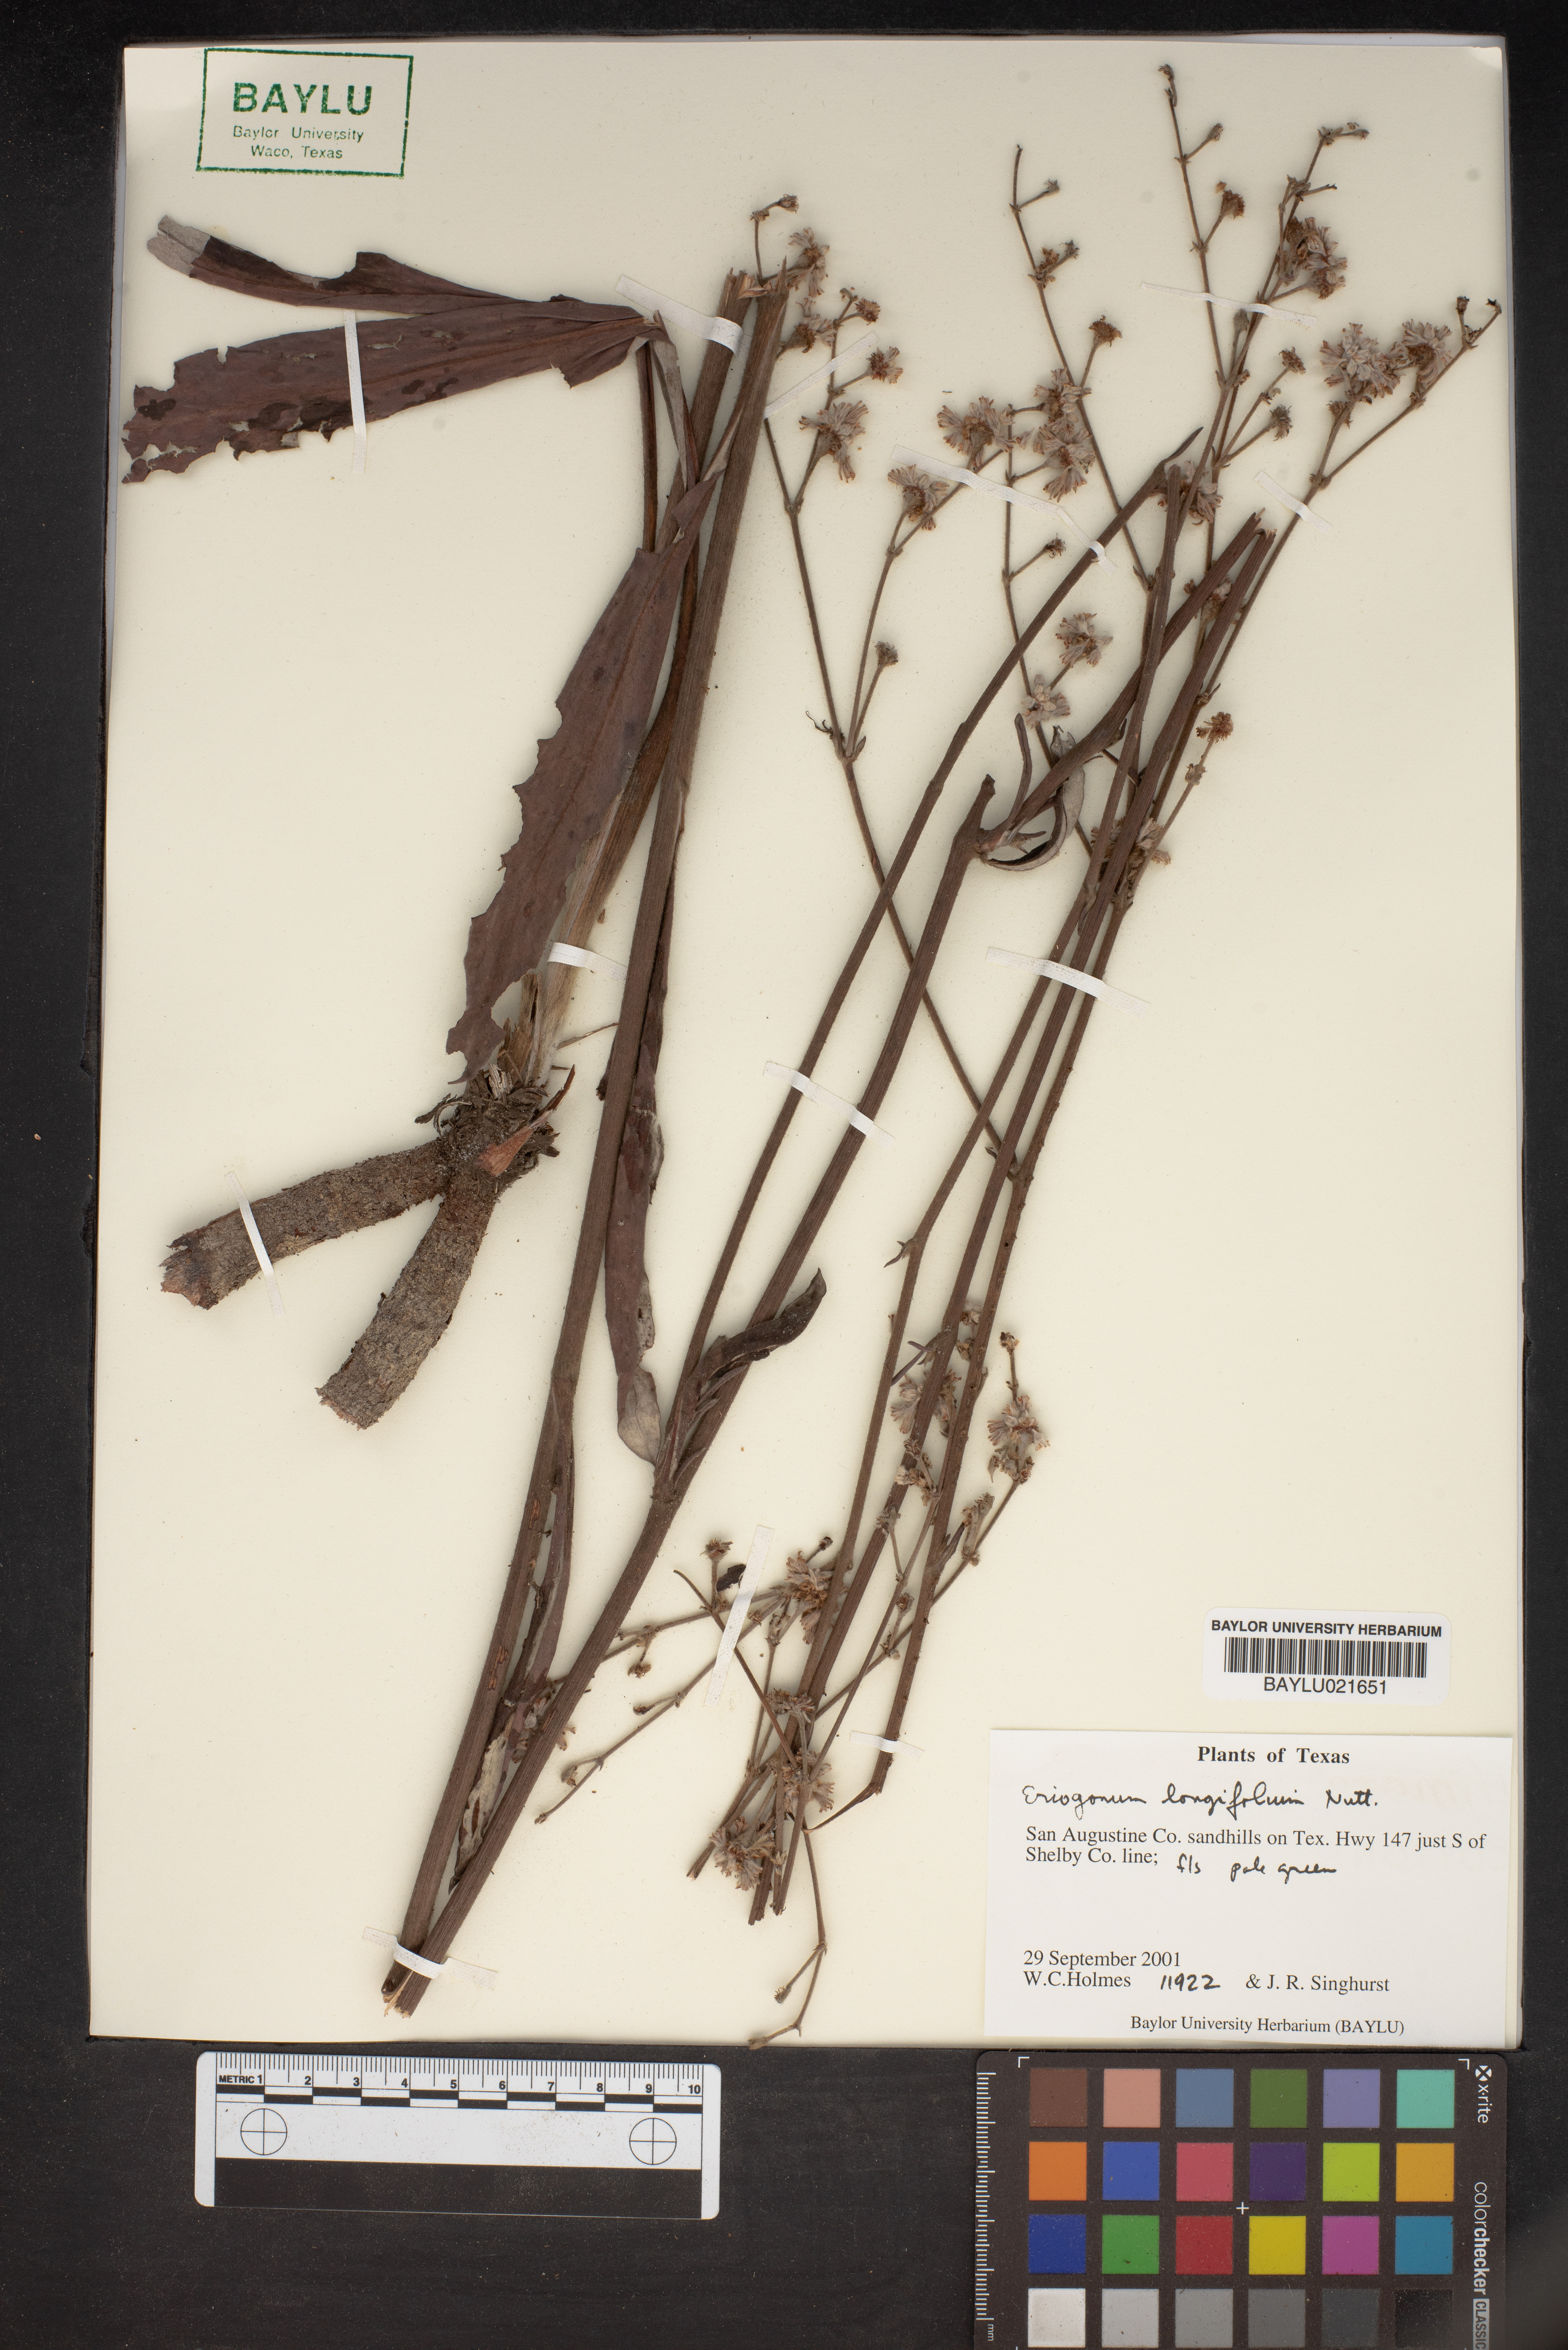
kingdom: Plantae
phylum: Tracheophyta
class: Magnoliopsida
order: Caryophyllales
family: Polygonaceae
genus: Eriogonum
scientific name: Eriogonum longifolium
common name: Longleaf wild buckwheat
